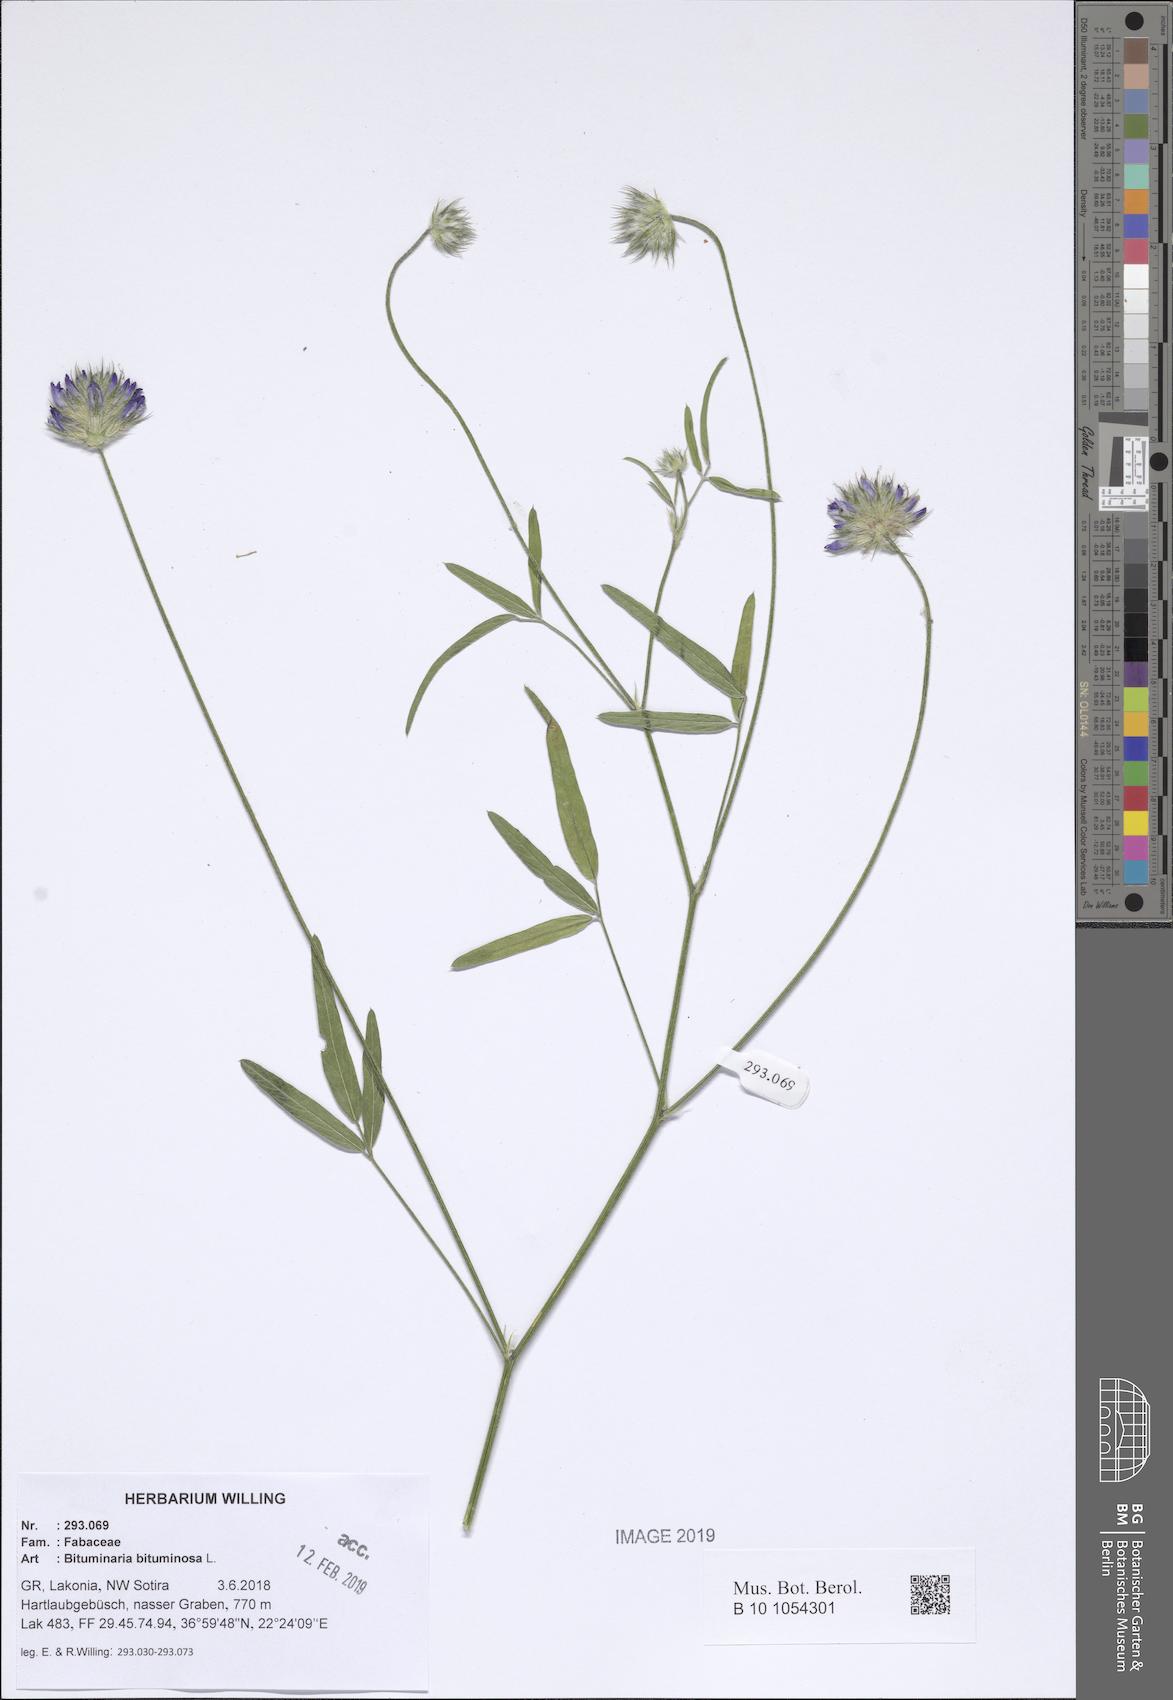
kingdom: Plantae
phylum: Tracheophyta
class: Magnoliopsida
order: Fabales
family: Fabaceae
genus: Bituminaria
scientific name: Bituminaria bituminosa
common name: Arabian pea
